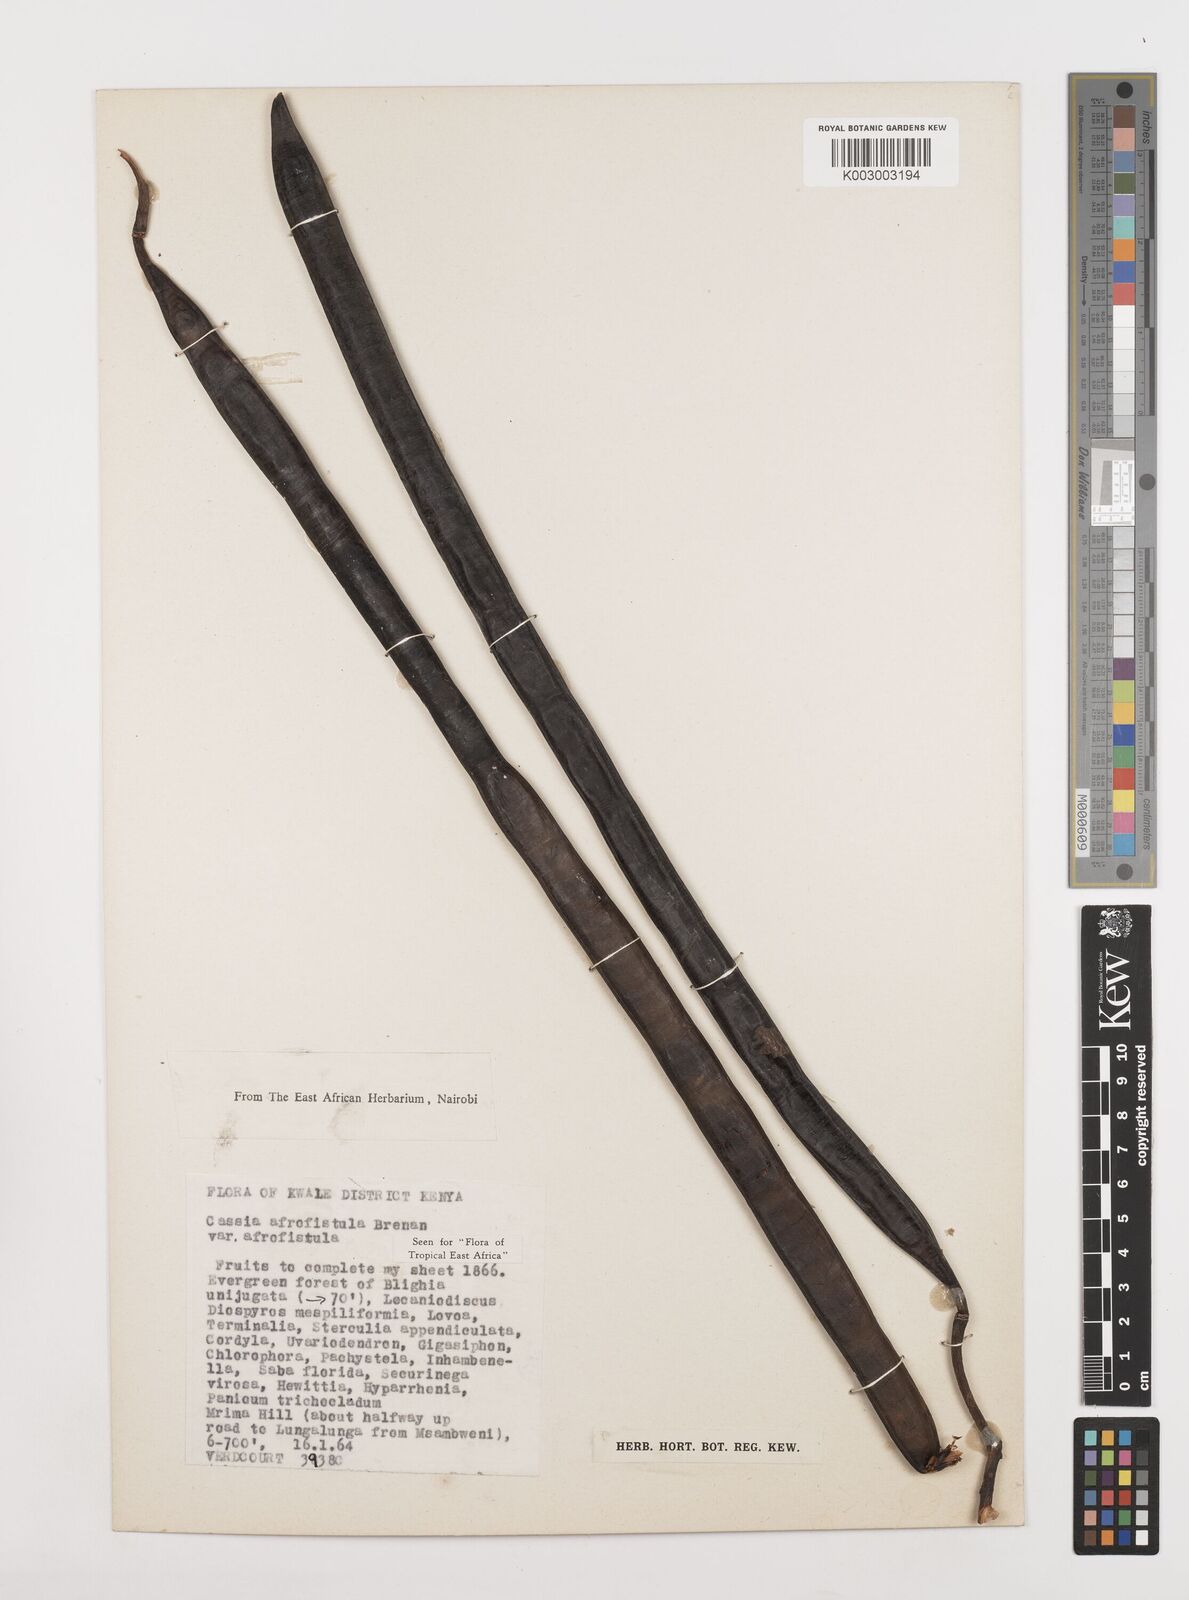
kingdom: Plantae
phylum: Tracheophyta
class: Magnoliopsida
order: Fabales
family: Fabaceae
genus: Cassia
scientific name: Cassia afrofistula
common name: Kenyan shower
